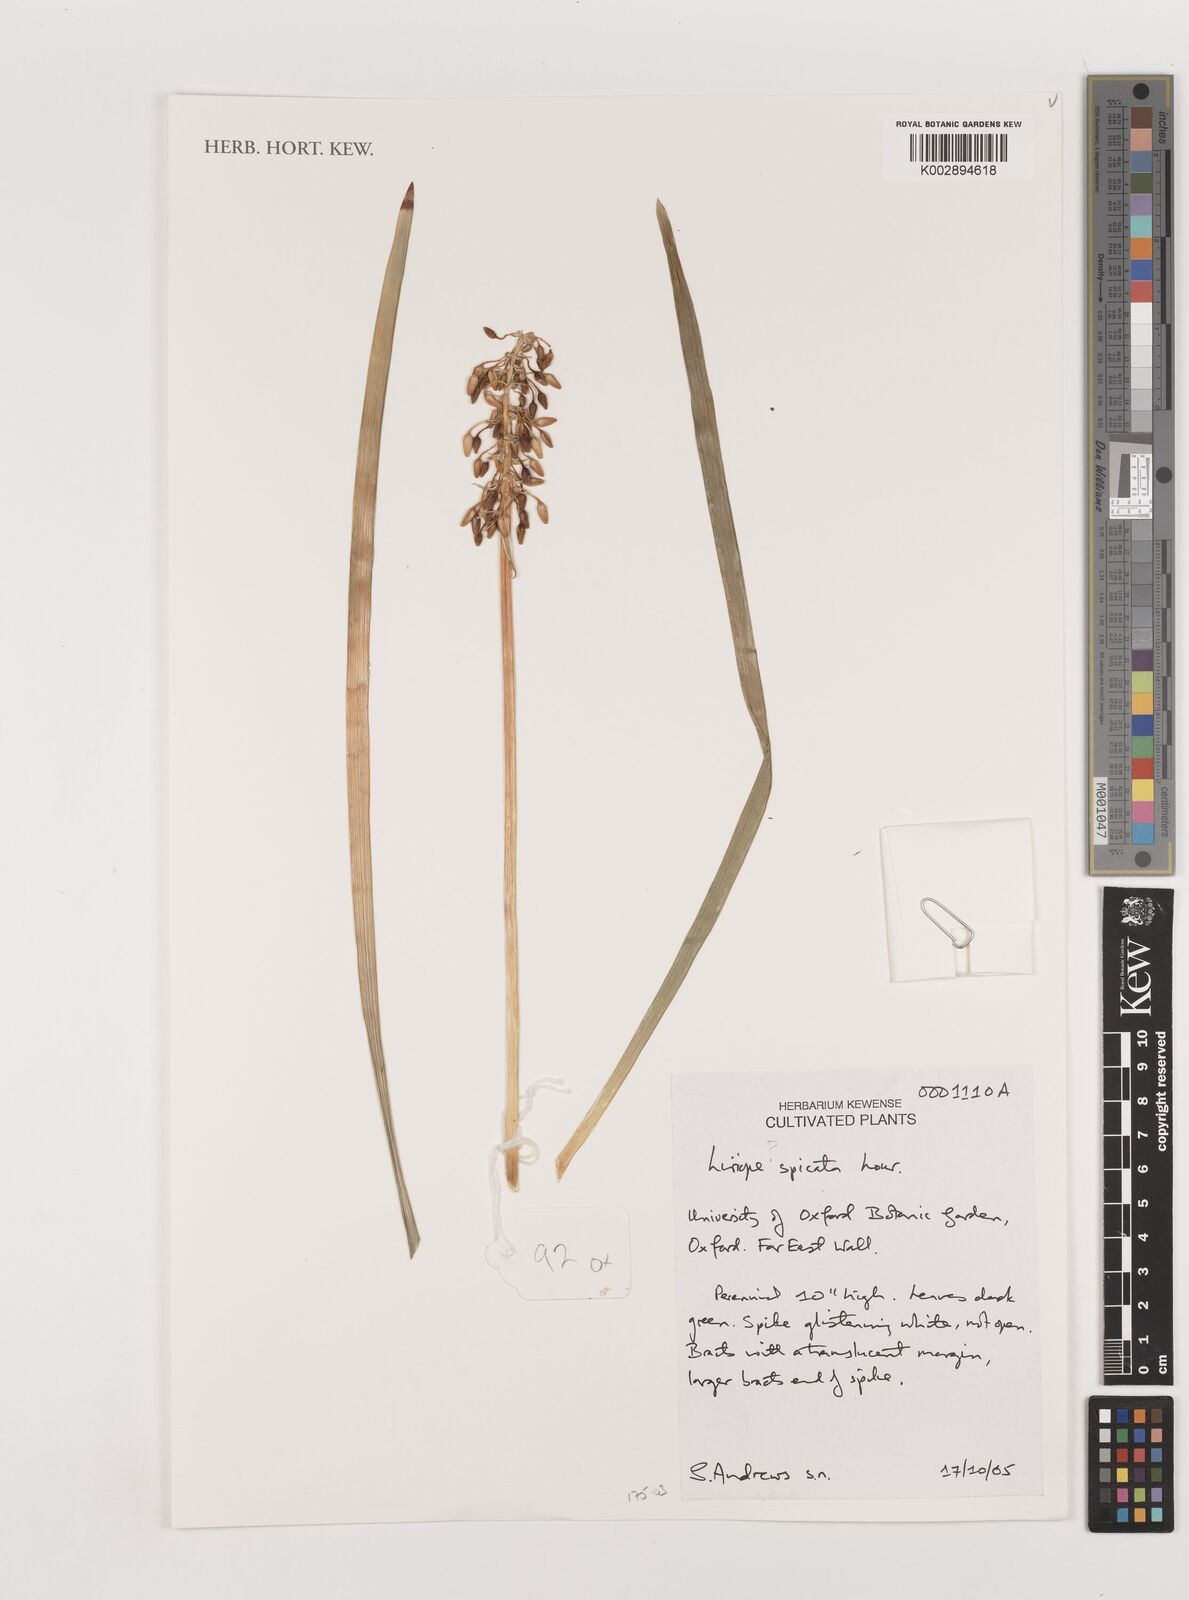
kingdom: Plantae
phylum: Tracheophyta
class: Liliopsida
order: Asparagales
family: Asparagaceae
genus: Liriope
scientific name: Liriope spicata
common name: Creeping liriope
